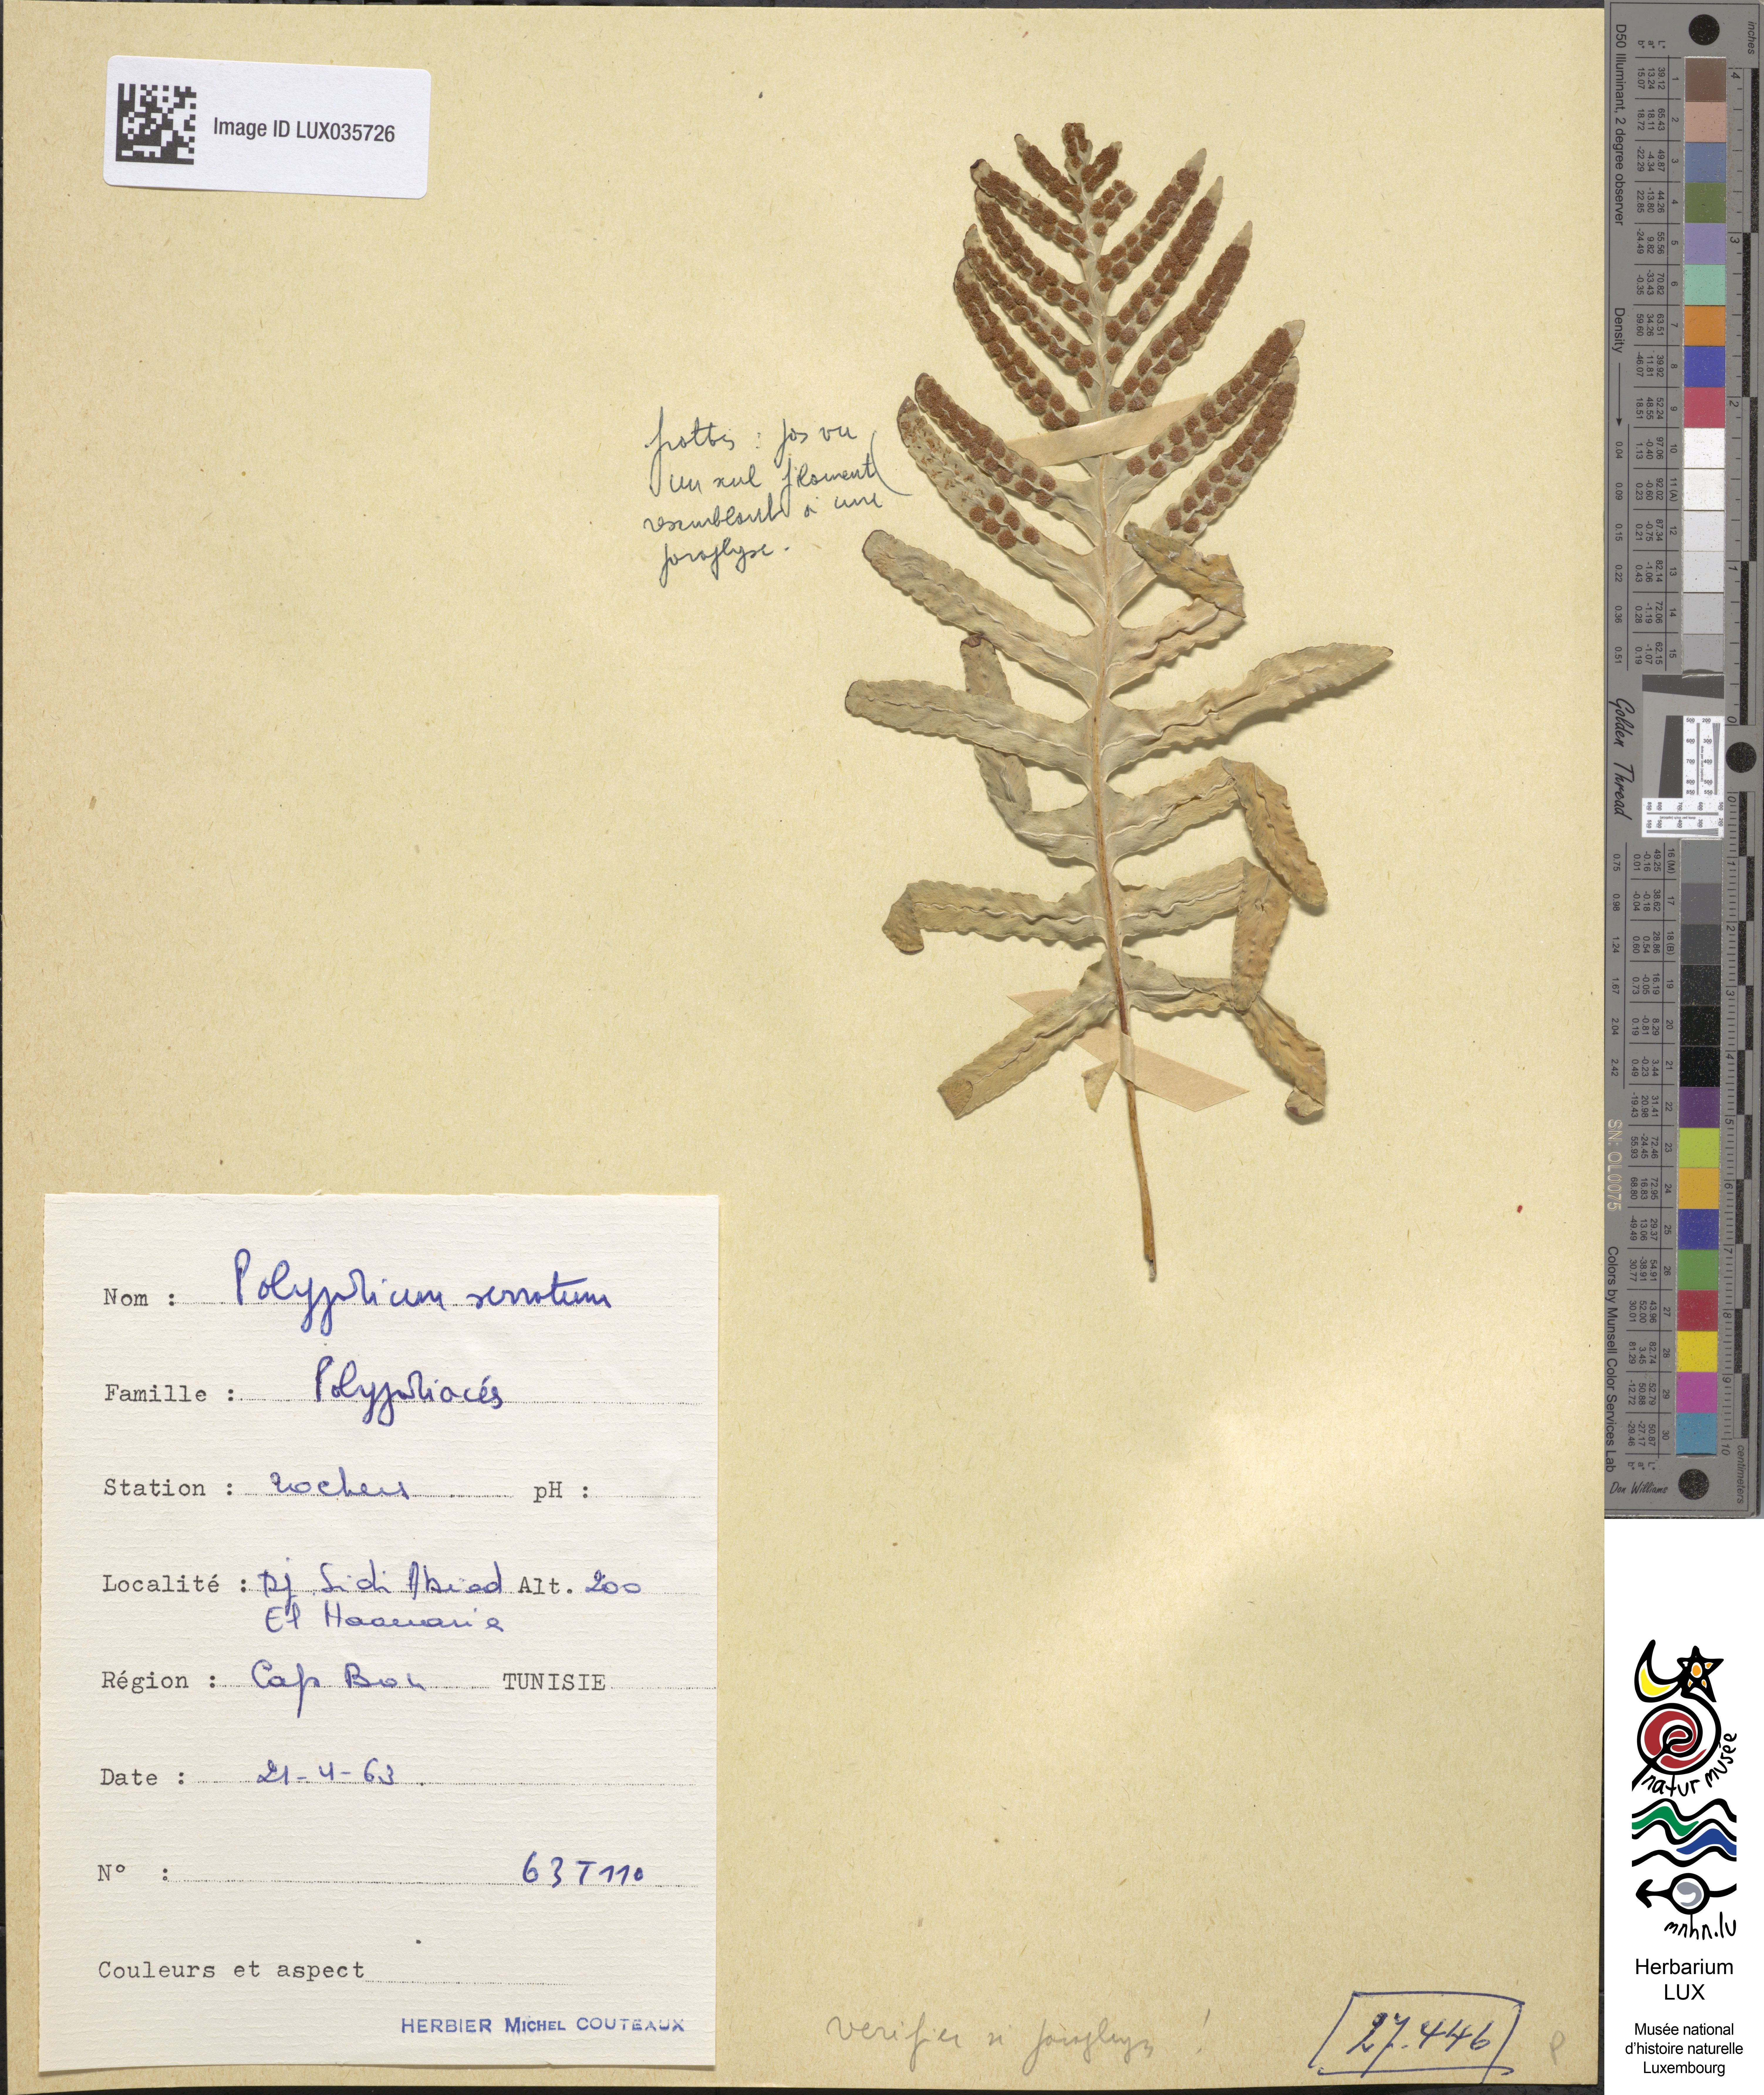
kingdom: Plantae
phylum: Tracheophyta
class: Polypodiopsida
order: Polypodiales
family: Polypodiaceae
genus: Polypodium
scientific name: Polypodium cambricum
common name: Southern polypody
